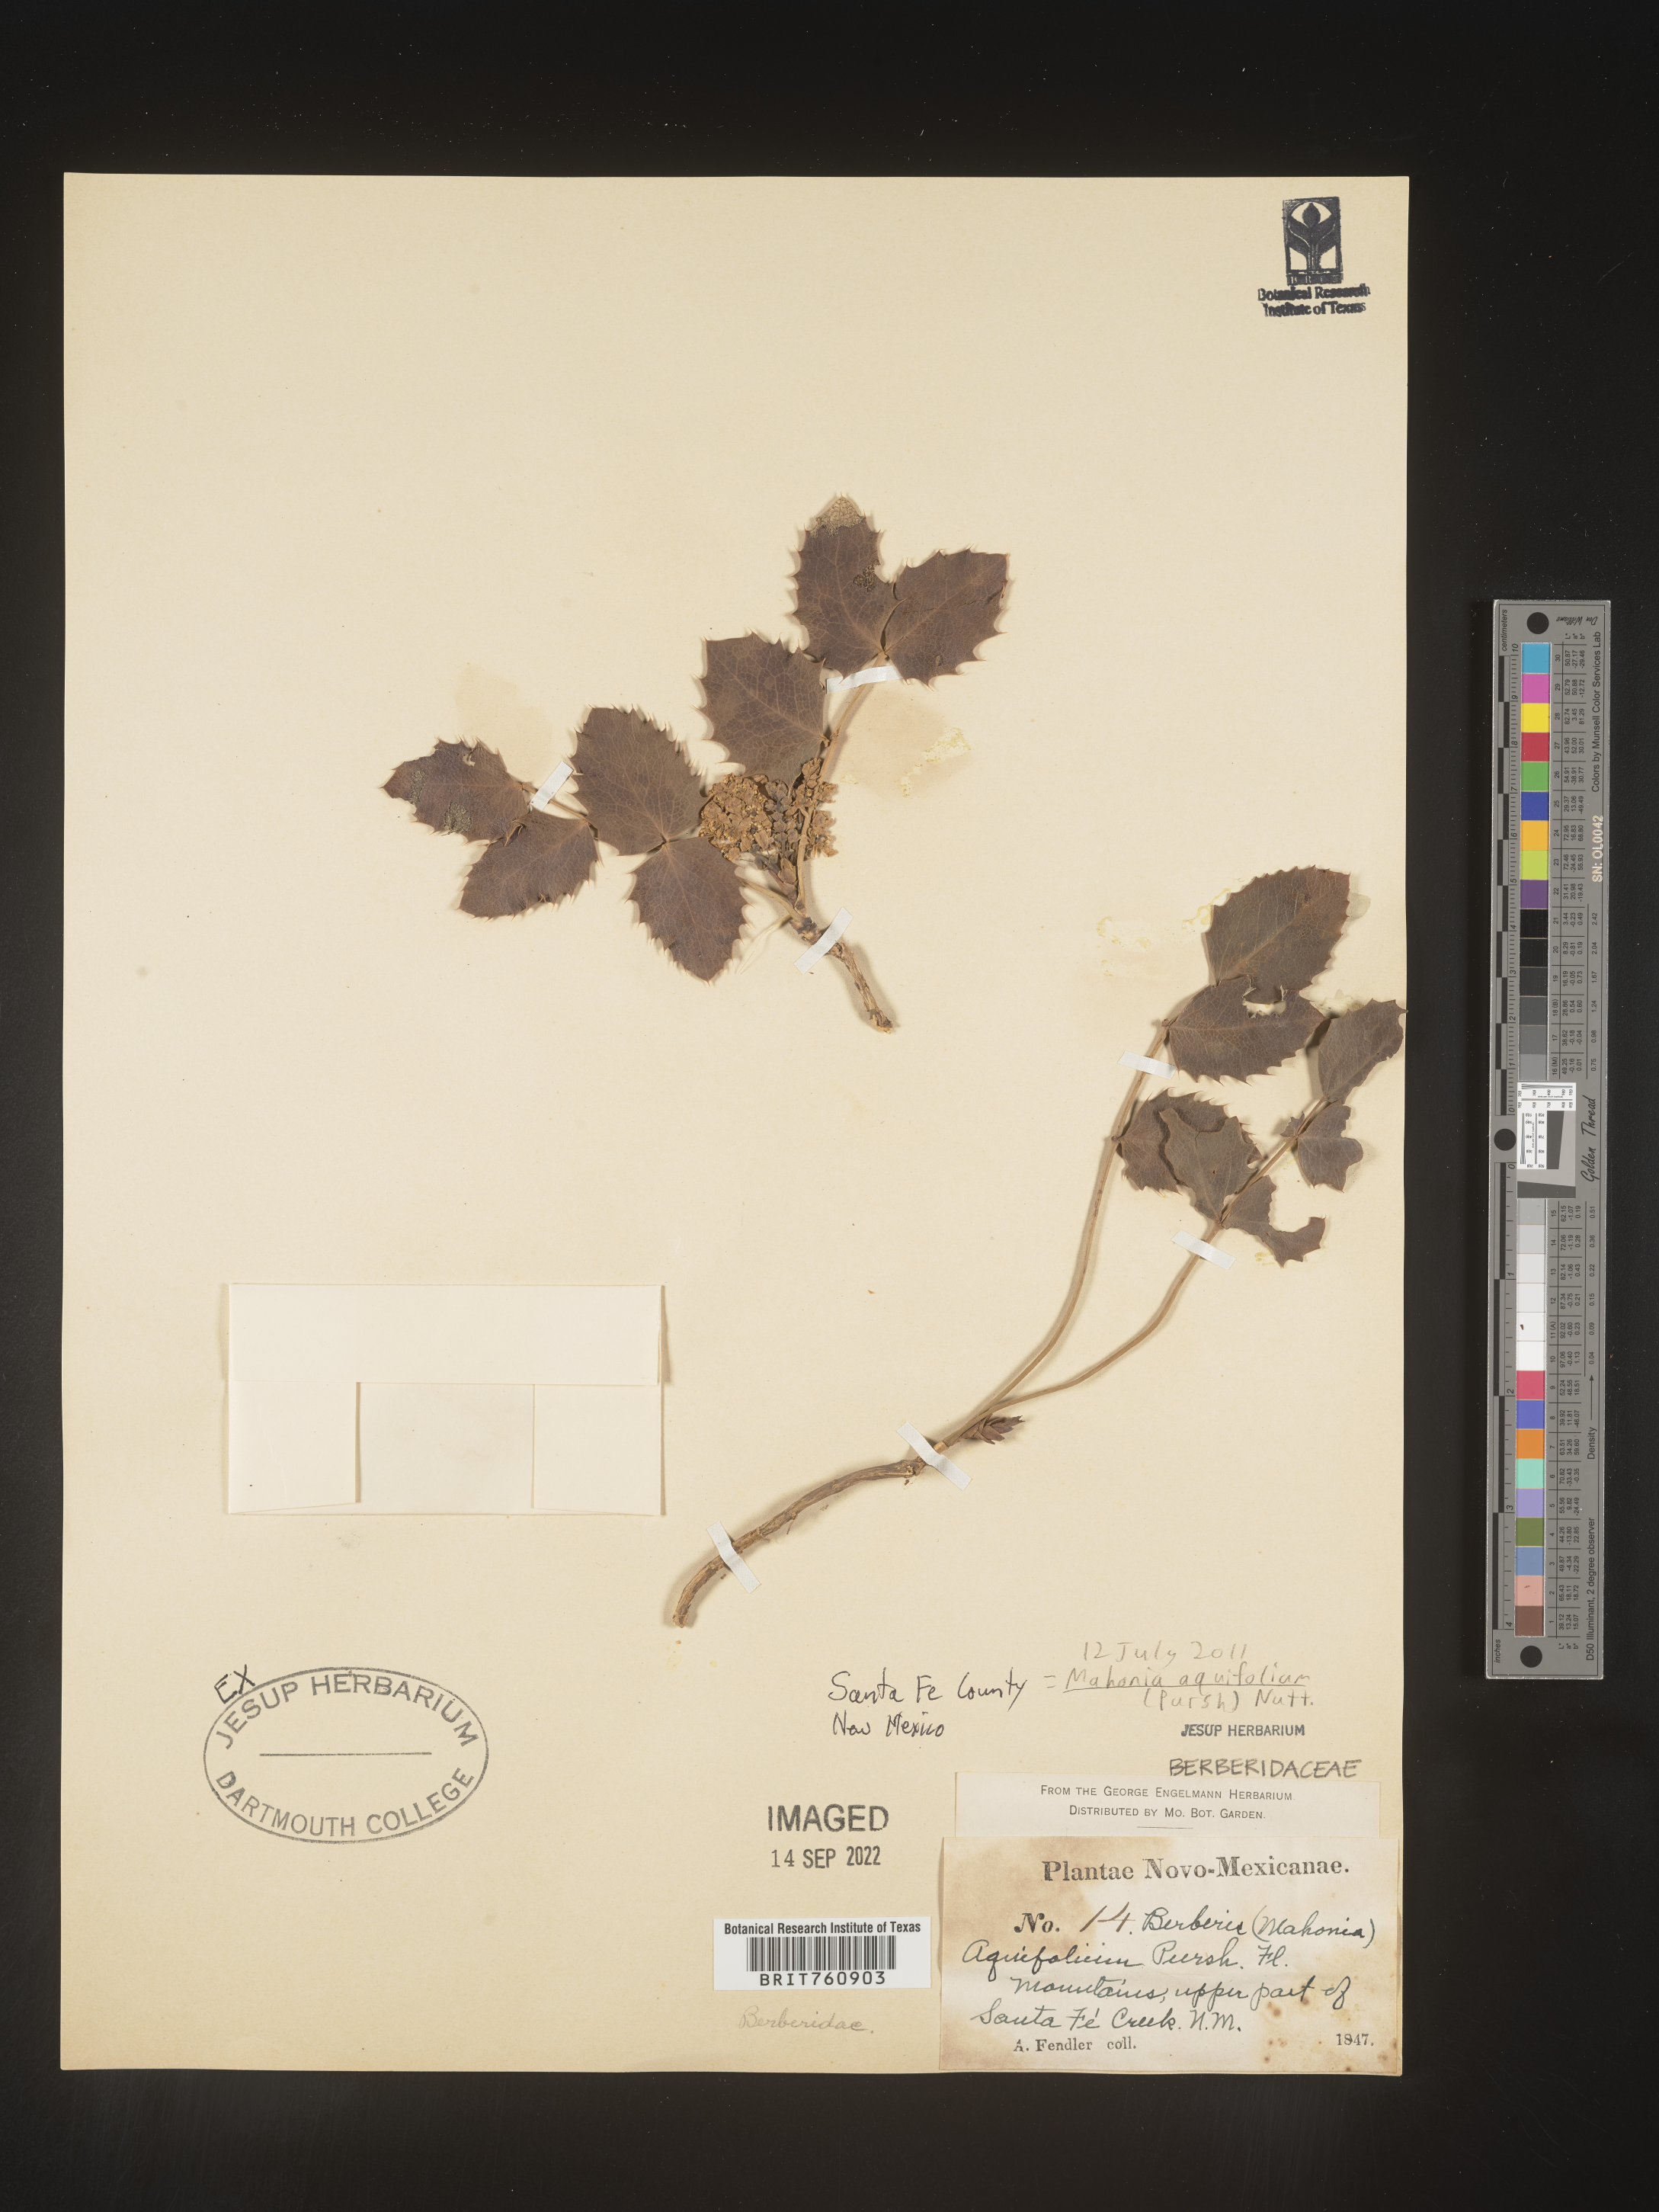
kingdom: Plantae
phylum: Tracheophyta
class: Magnoliopsida
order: Ranunculales
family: Berberidaceae
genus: Mahonia
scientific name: Mahonia aquifolium
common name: Oregon-grape
